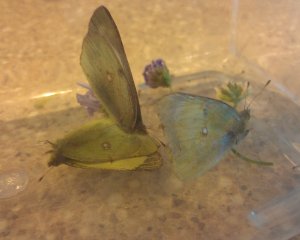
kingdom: Animalia
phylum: Arthropoda
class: Insecta
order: Lepidoptera
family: Pieridae
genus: Colias
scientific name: Colias philodice
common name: Clouded Sulphur
